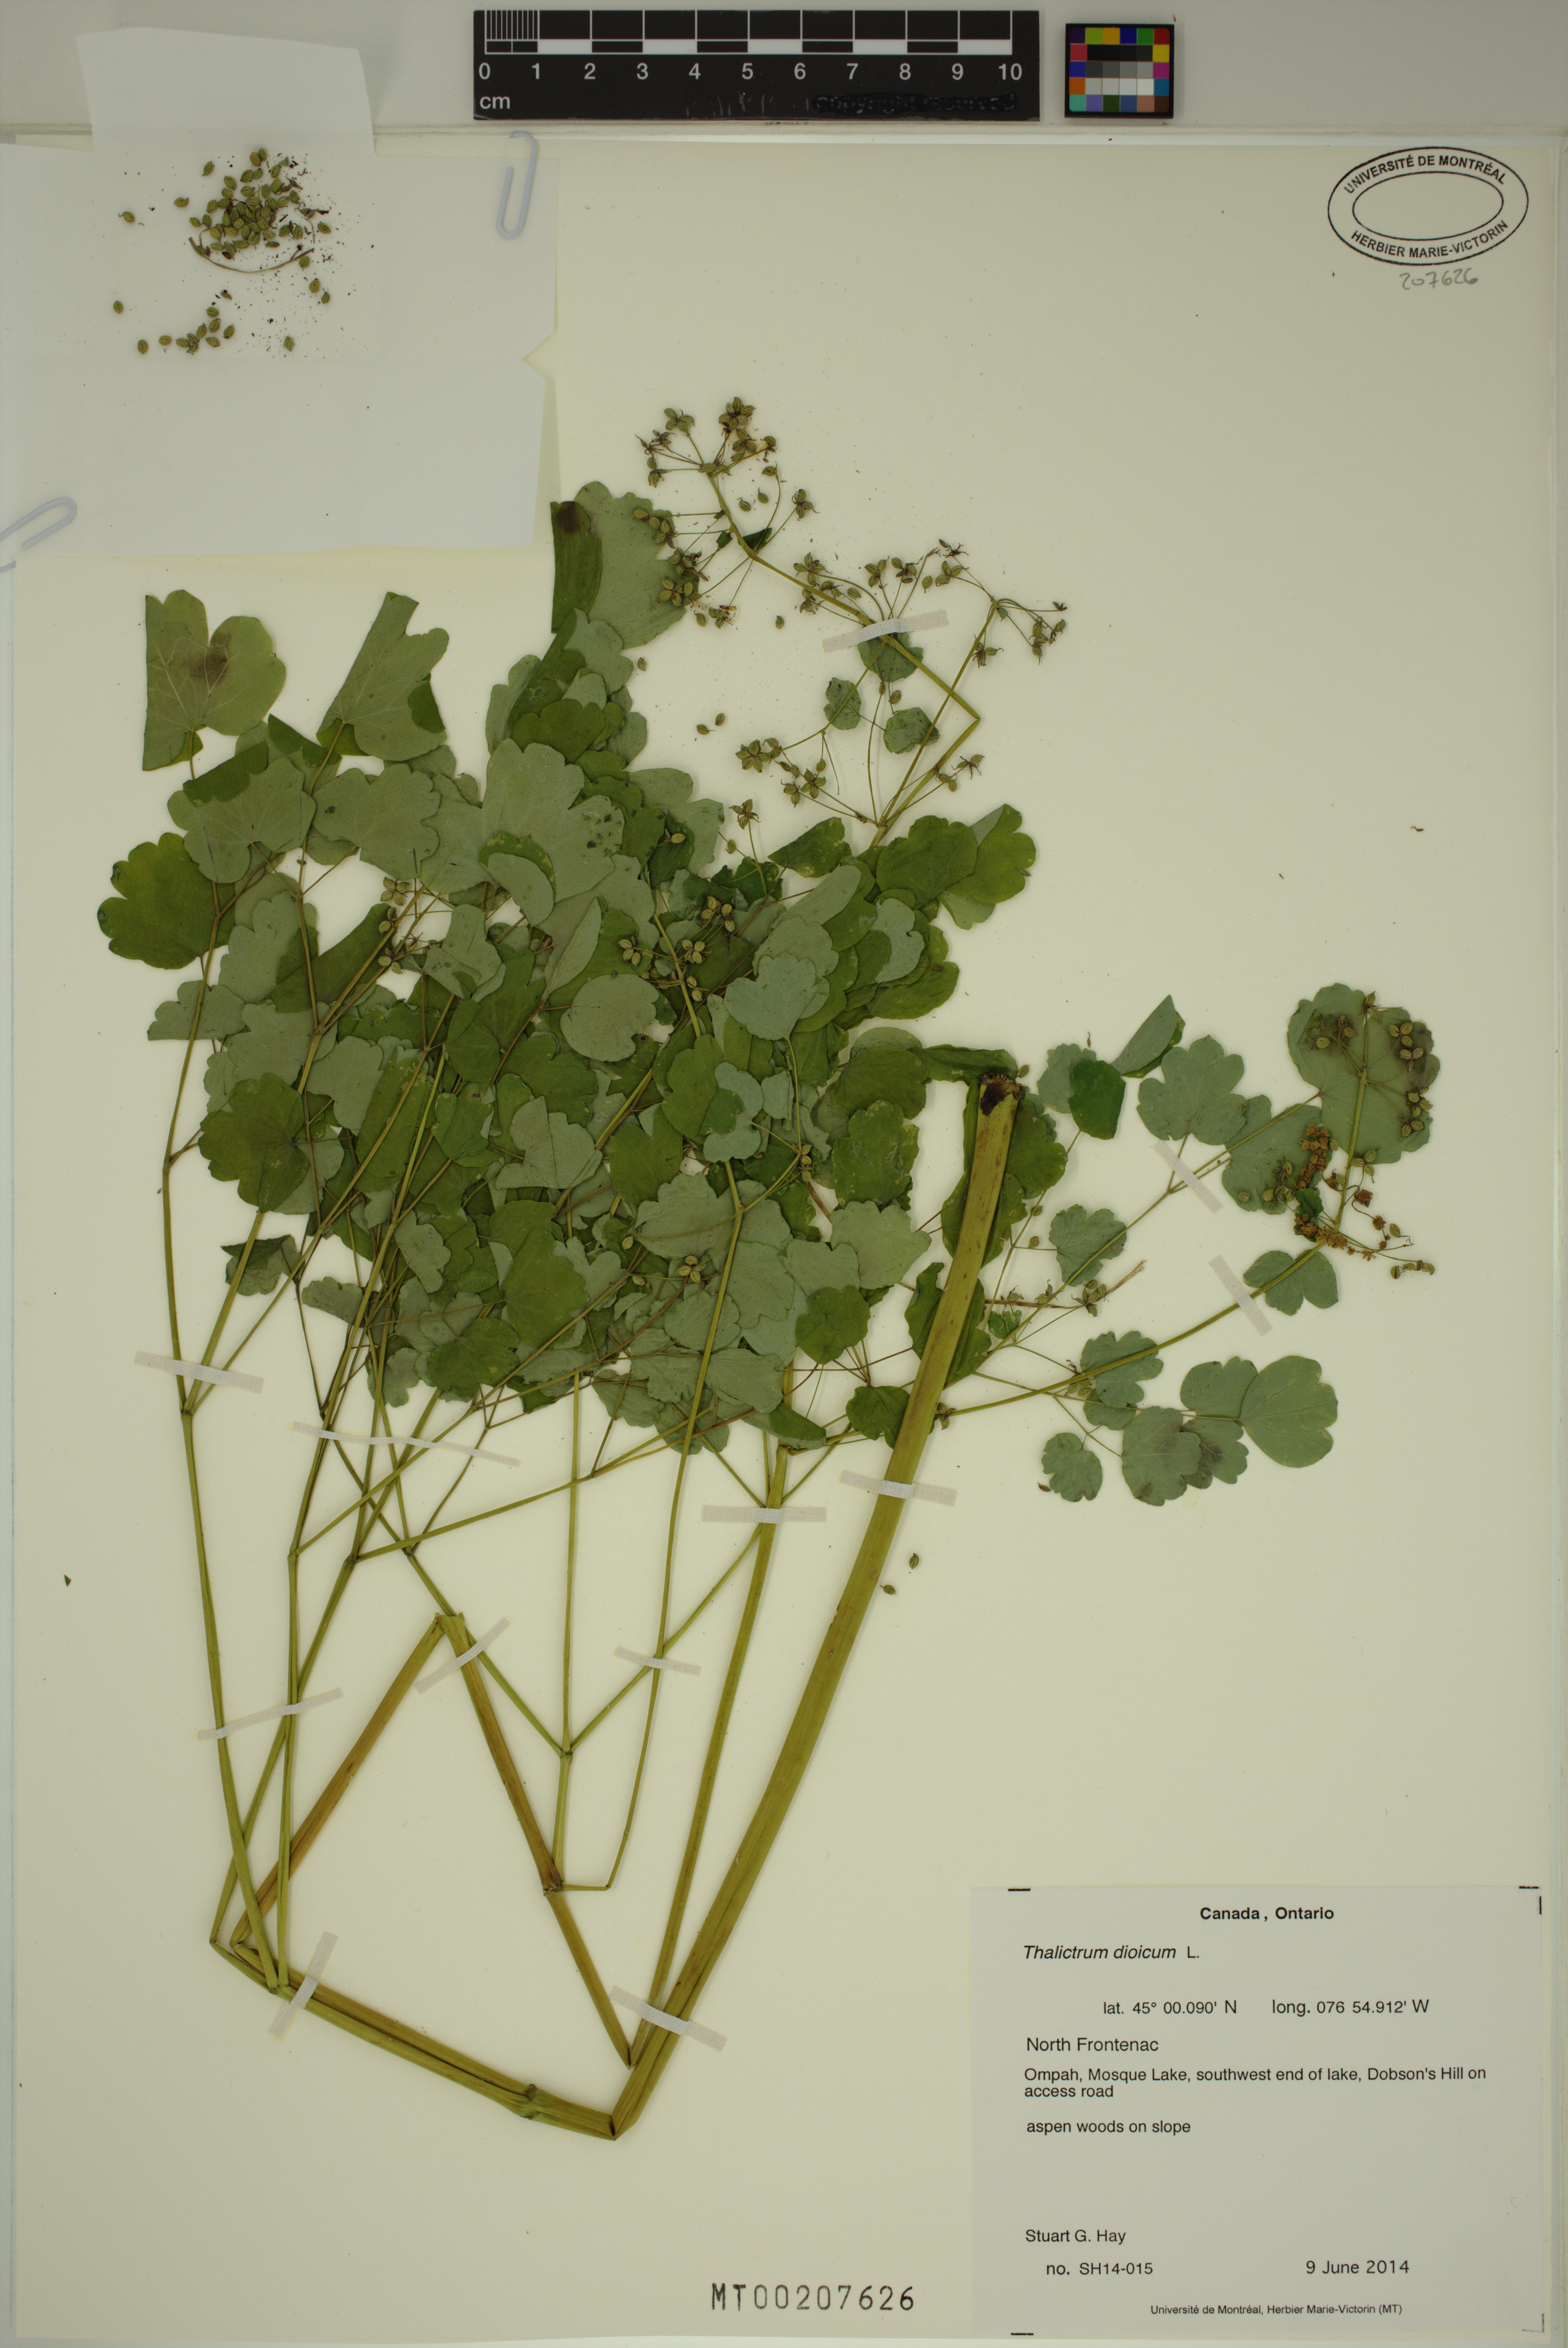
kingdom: Plantae
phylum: Tracheophyta
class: Magnoliopsida
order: Ranunculales
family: Ranunculaceae
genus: Thalictrum
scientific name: Thalictrum dioicum
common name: Early meadow-rue
